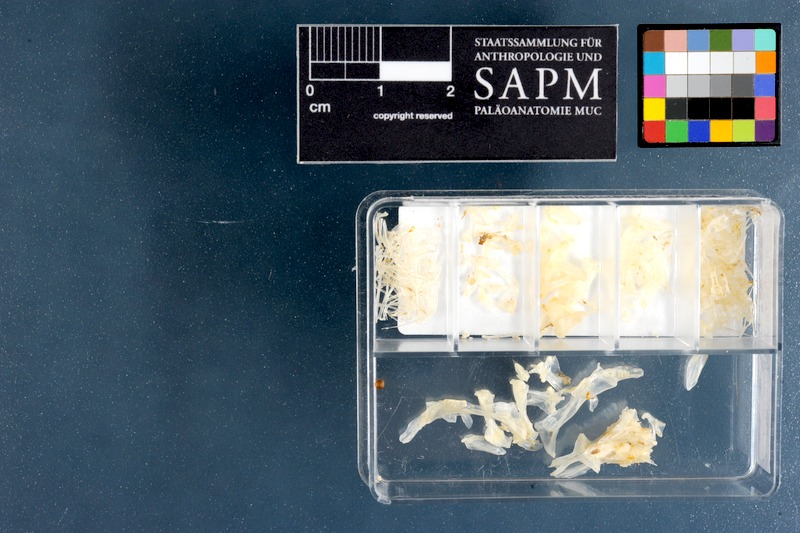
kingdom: Animalia
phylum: Chordata
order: Perciformes
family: Blenniidae
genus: Parablennius
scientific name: Parablennius pilicornis
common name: Ringneck blenny
